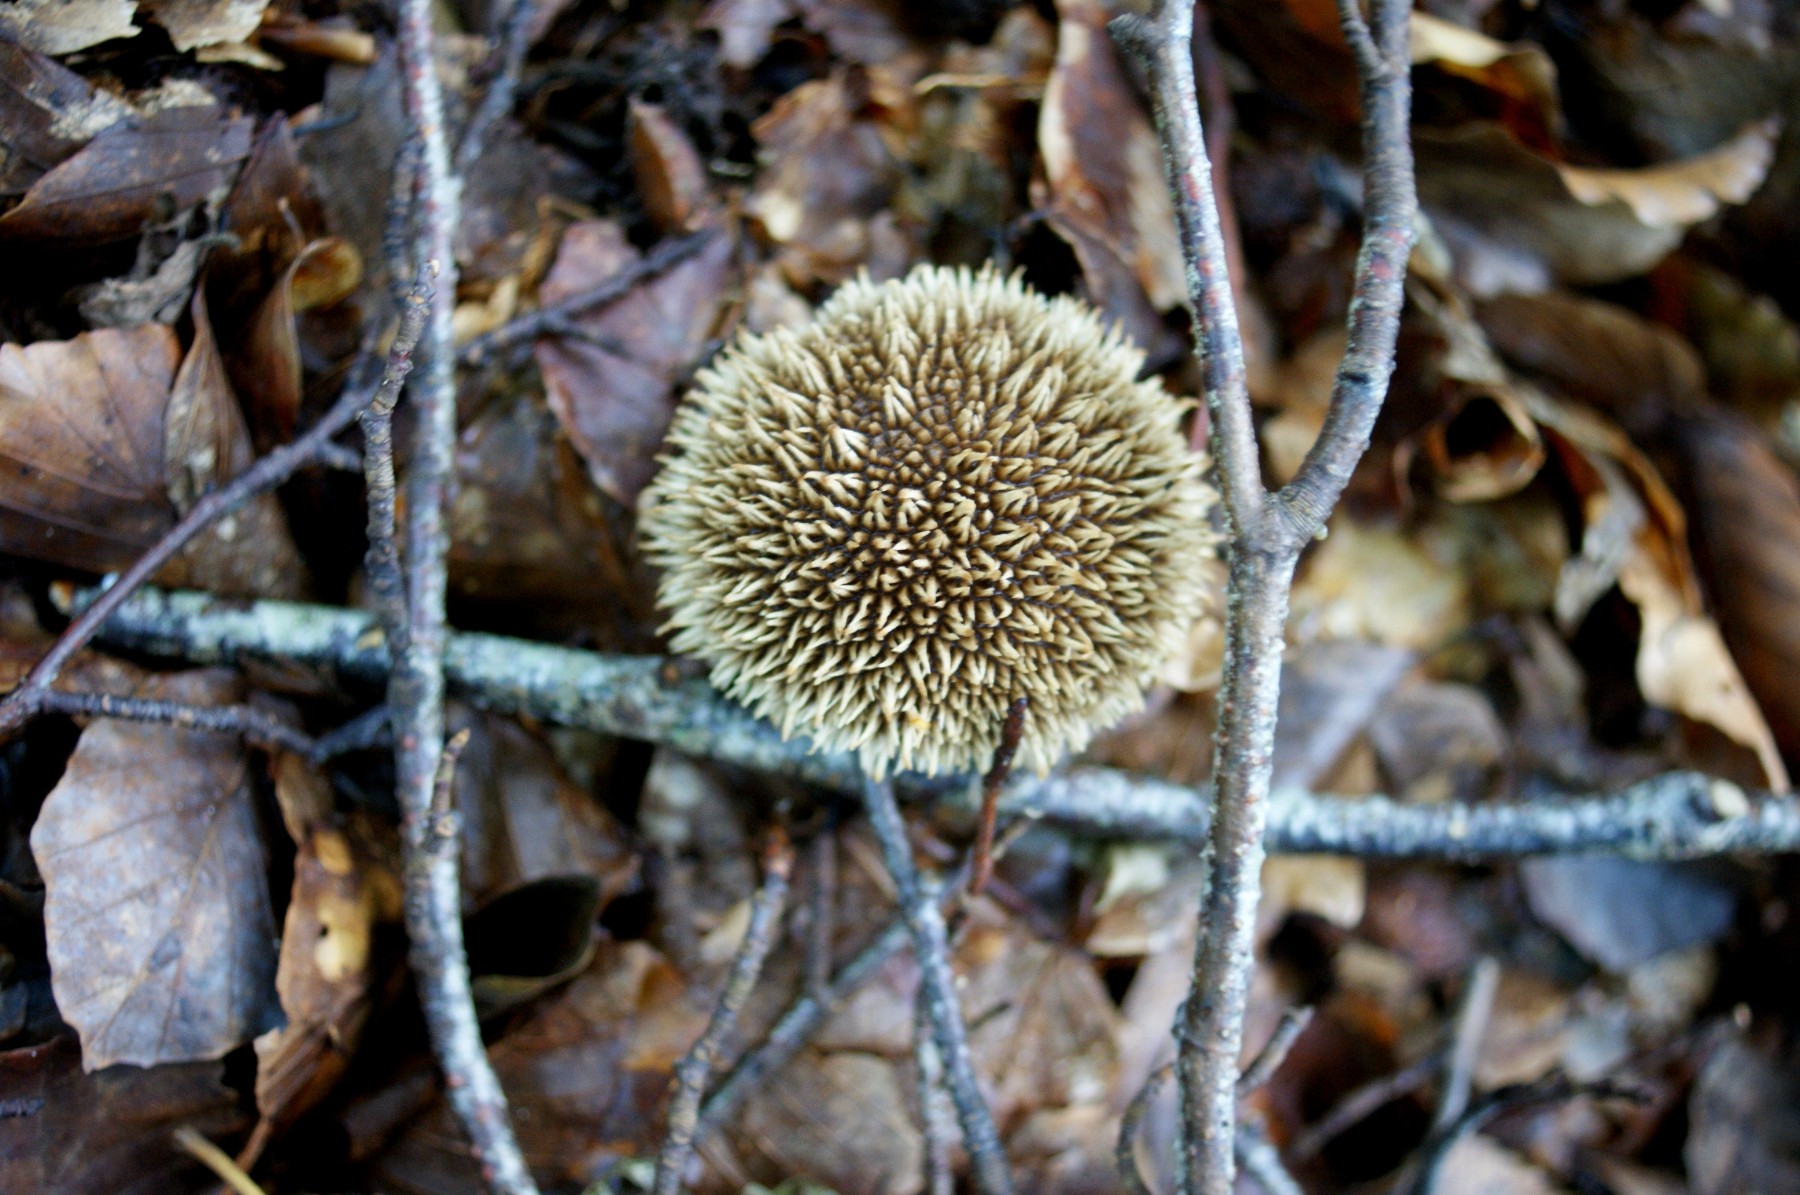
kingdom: Fungi
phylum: Basidiomycota
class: Agaricomycetes
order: Agaricales
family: Lycoperdaceae
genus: Lycoperdon
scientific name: Lycoperdon echinatum
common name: pindsvine-støvbold
